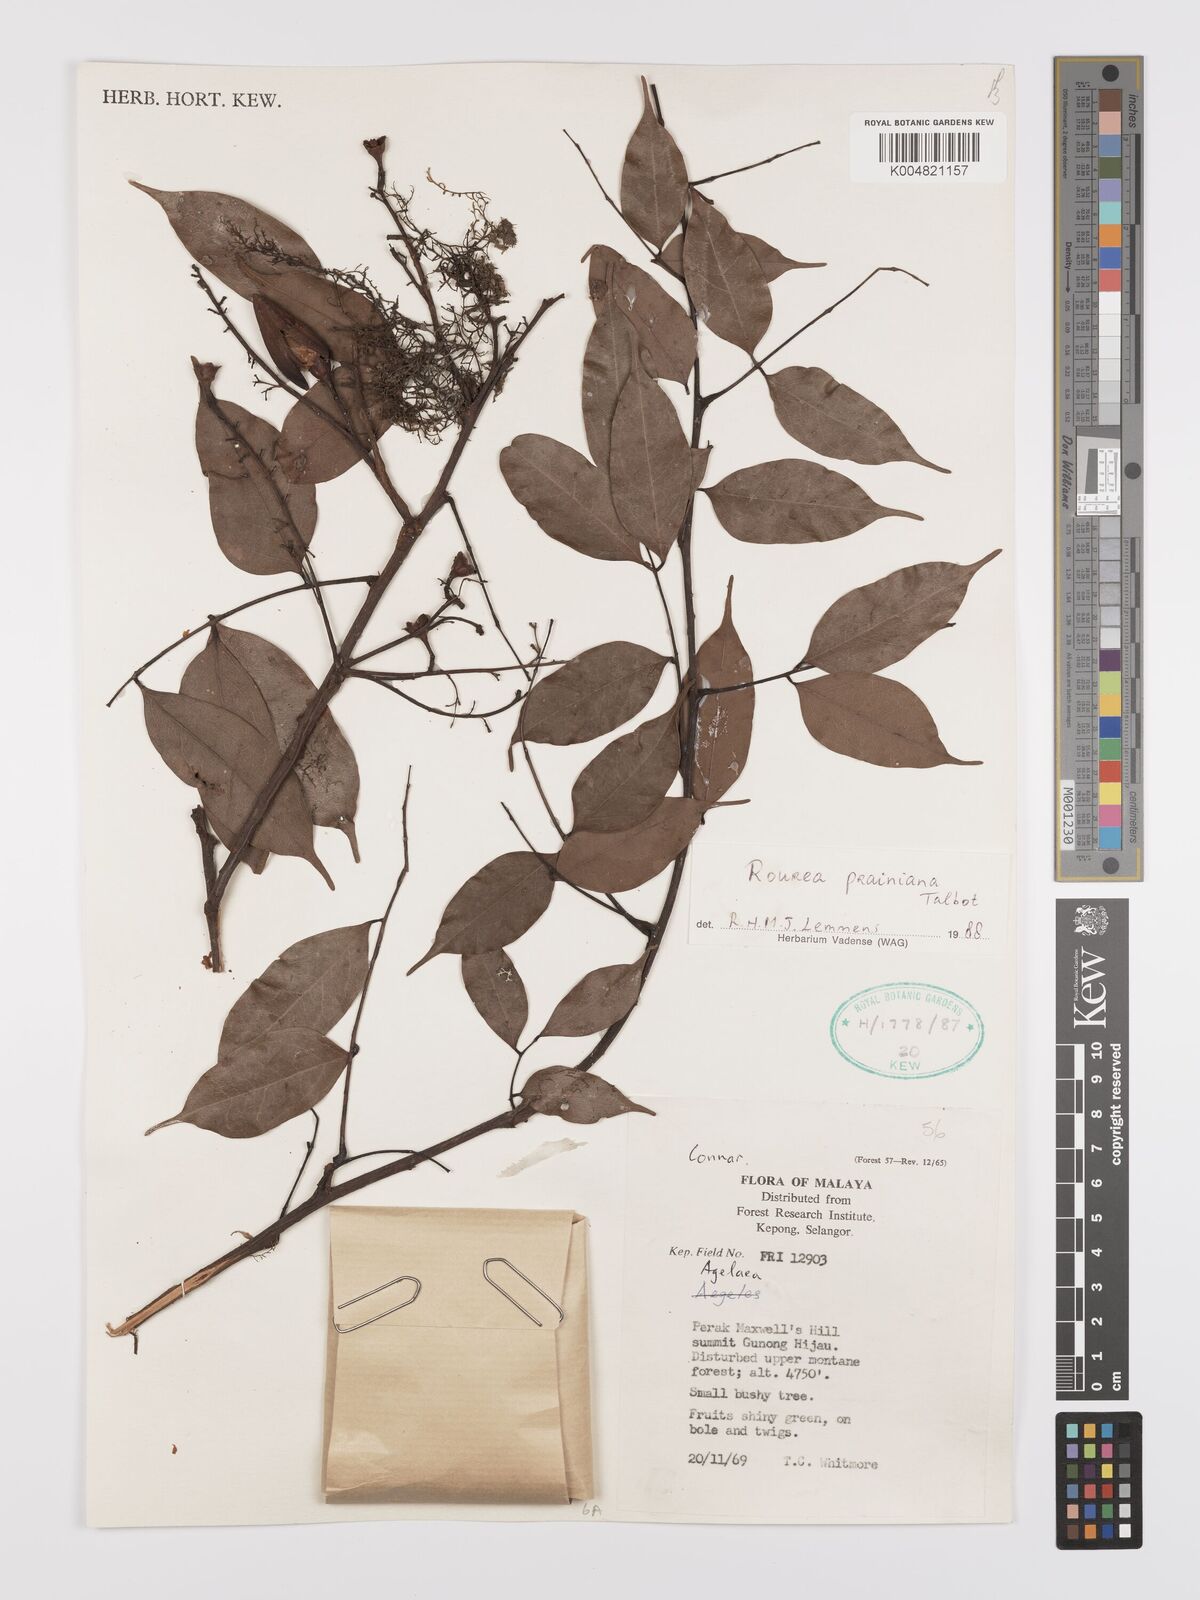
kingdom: Plantae
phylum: Tracheophyta
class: Magnoliopsida
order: Oxalidales
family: Connaraceae
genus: Rourea
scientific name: Rourea prainiana
